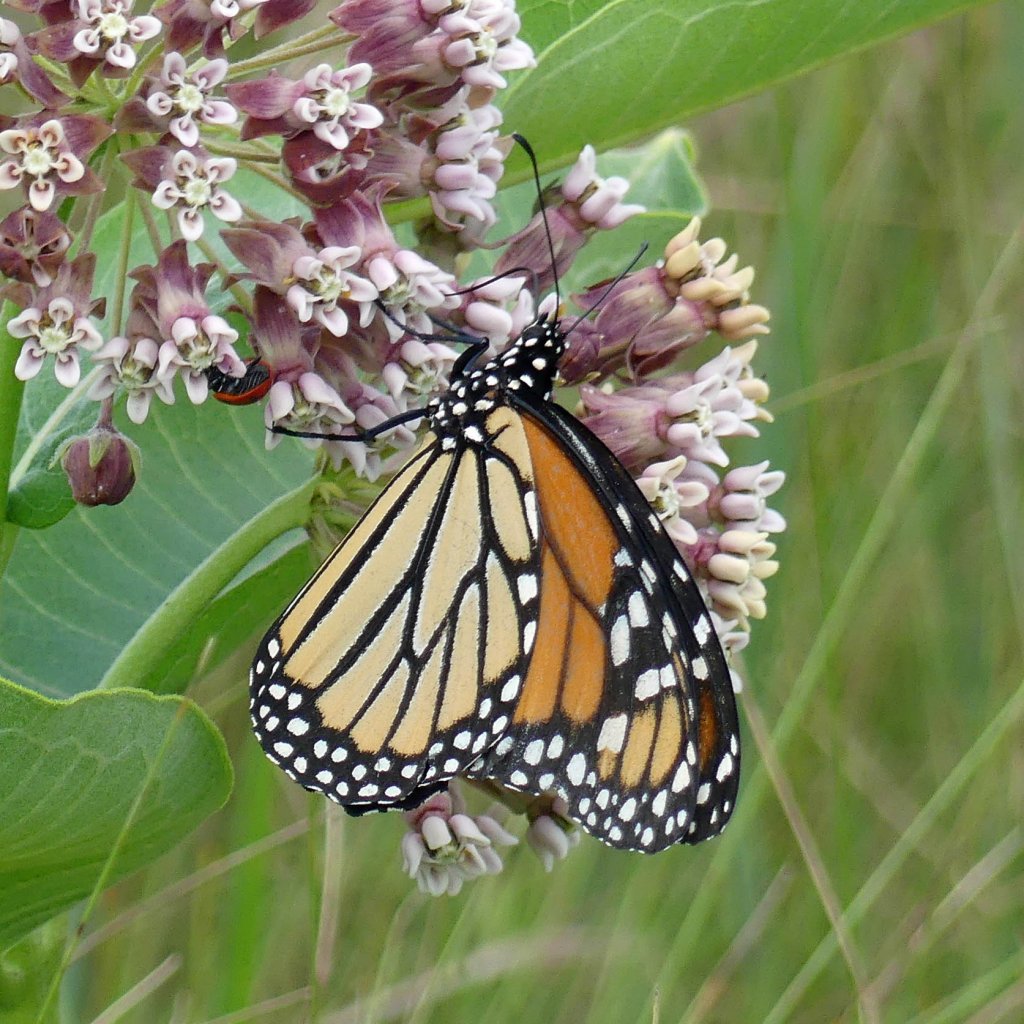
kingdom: Animalia
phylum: Arthropoda
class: Insecta
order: Lepidoptera
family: Nymphalidae
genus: Danaus
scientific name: Danaus plexippus
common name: Monarch
